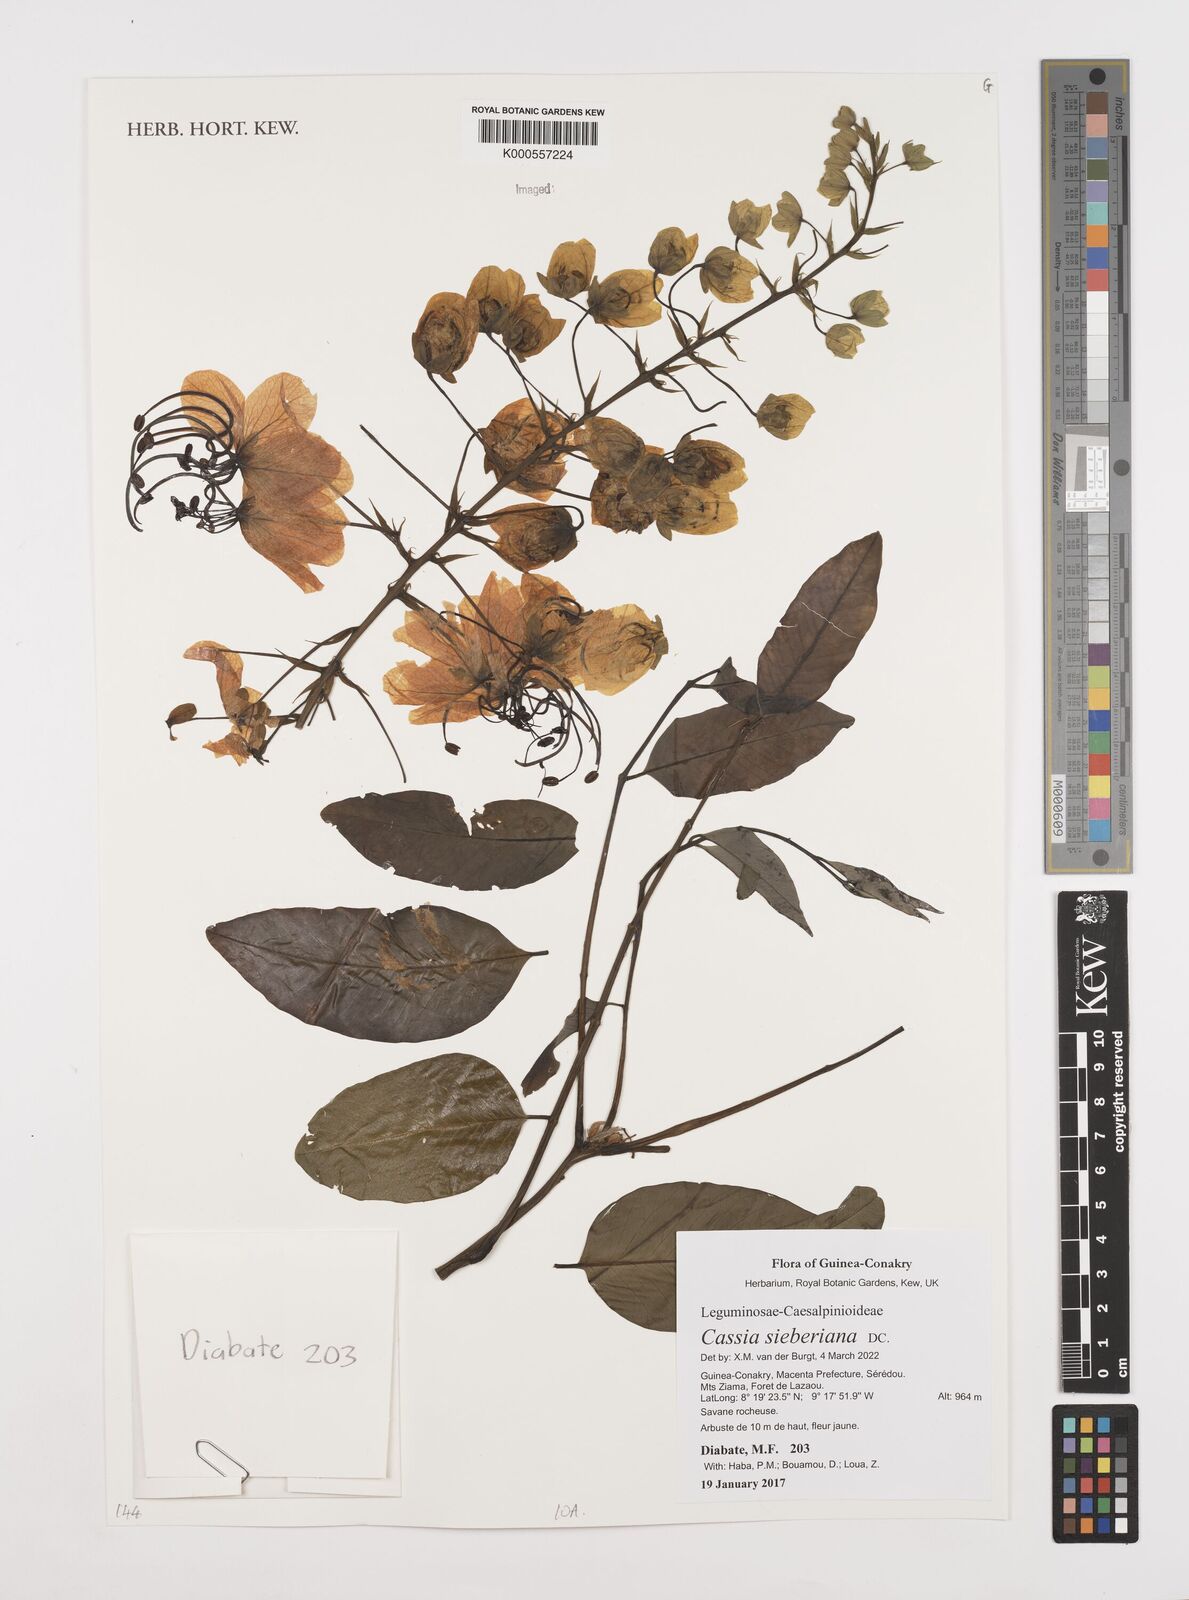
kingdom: Plantae
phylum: Tracheophyta
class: Magnoliopsida
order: Fabales
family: Fabaceae
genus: Cassia
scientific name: Cassia sieberiana
